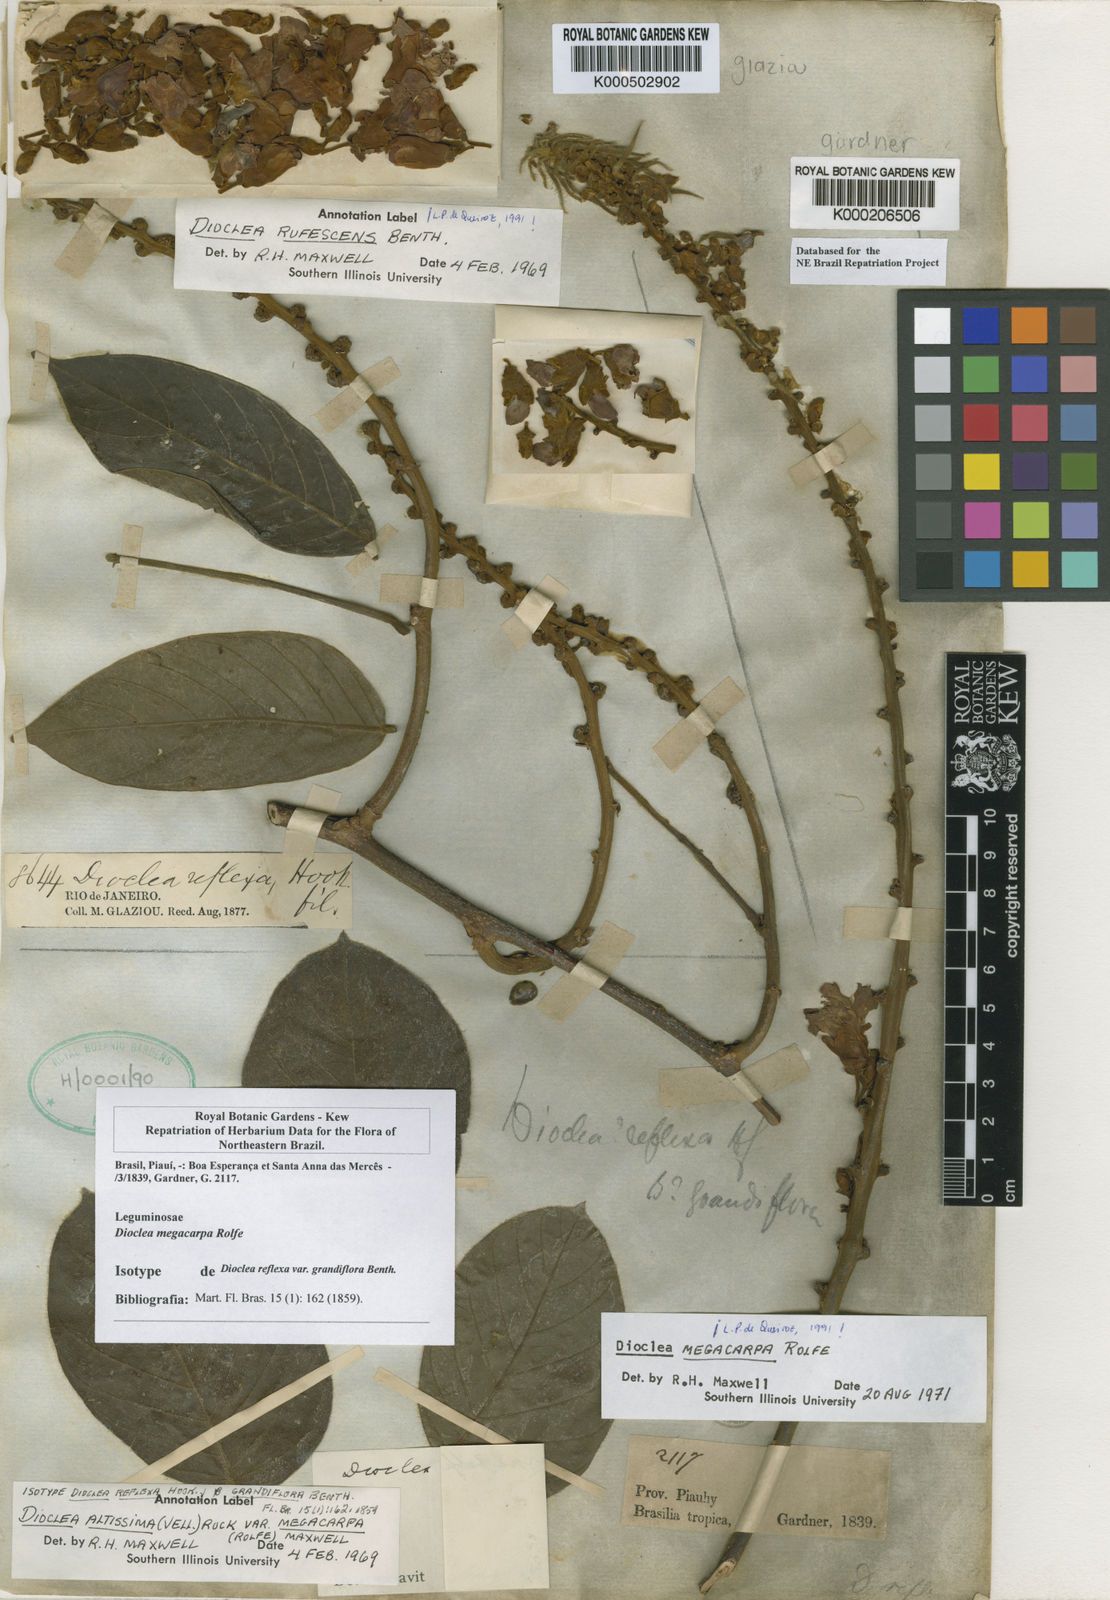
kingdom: Plantae
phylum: Tracheophyta
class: Magnoliopsida
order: Fabales
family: Fabaceae
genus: Macropsychanthus
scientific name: Macropsychanthus megacarpus
